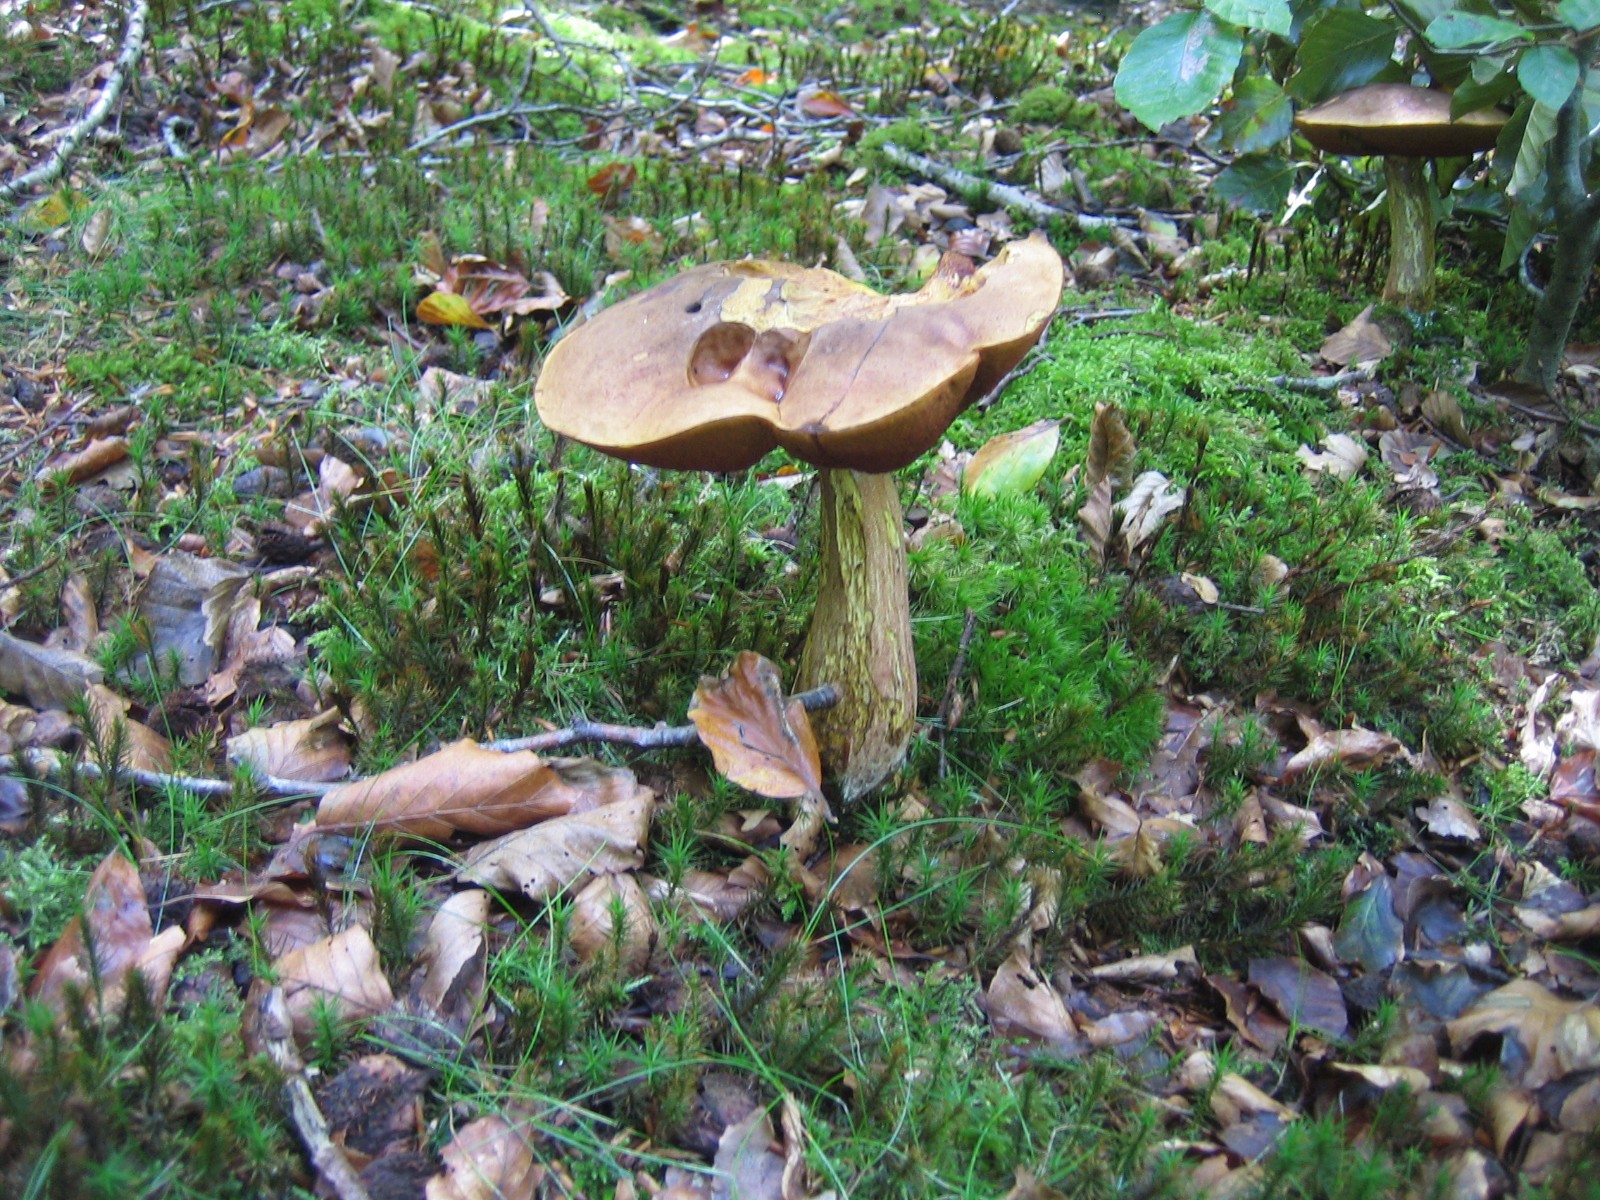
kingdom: Fungi
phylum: Basidiomycota
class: Agaricomycetes
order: Boletales
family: Boletaceae
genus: Neoboletus
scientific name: Neoboletus erythropus
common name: punktstokket indigorørhat
